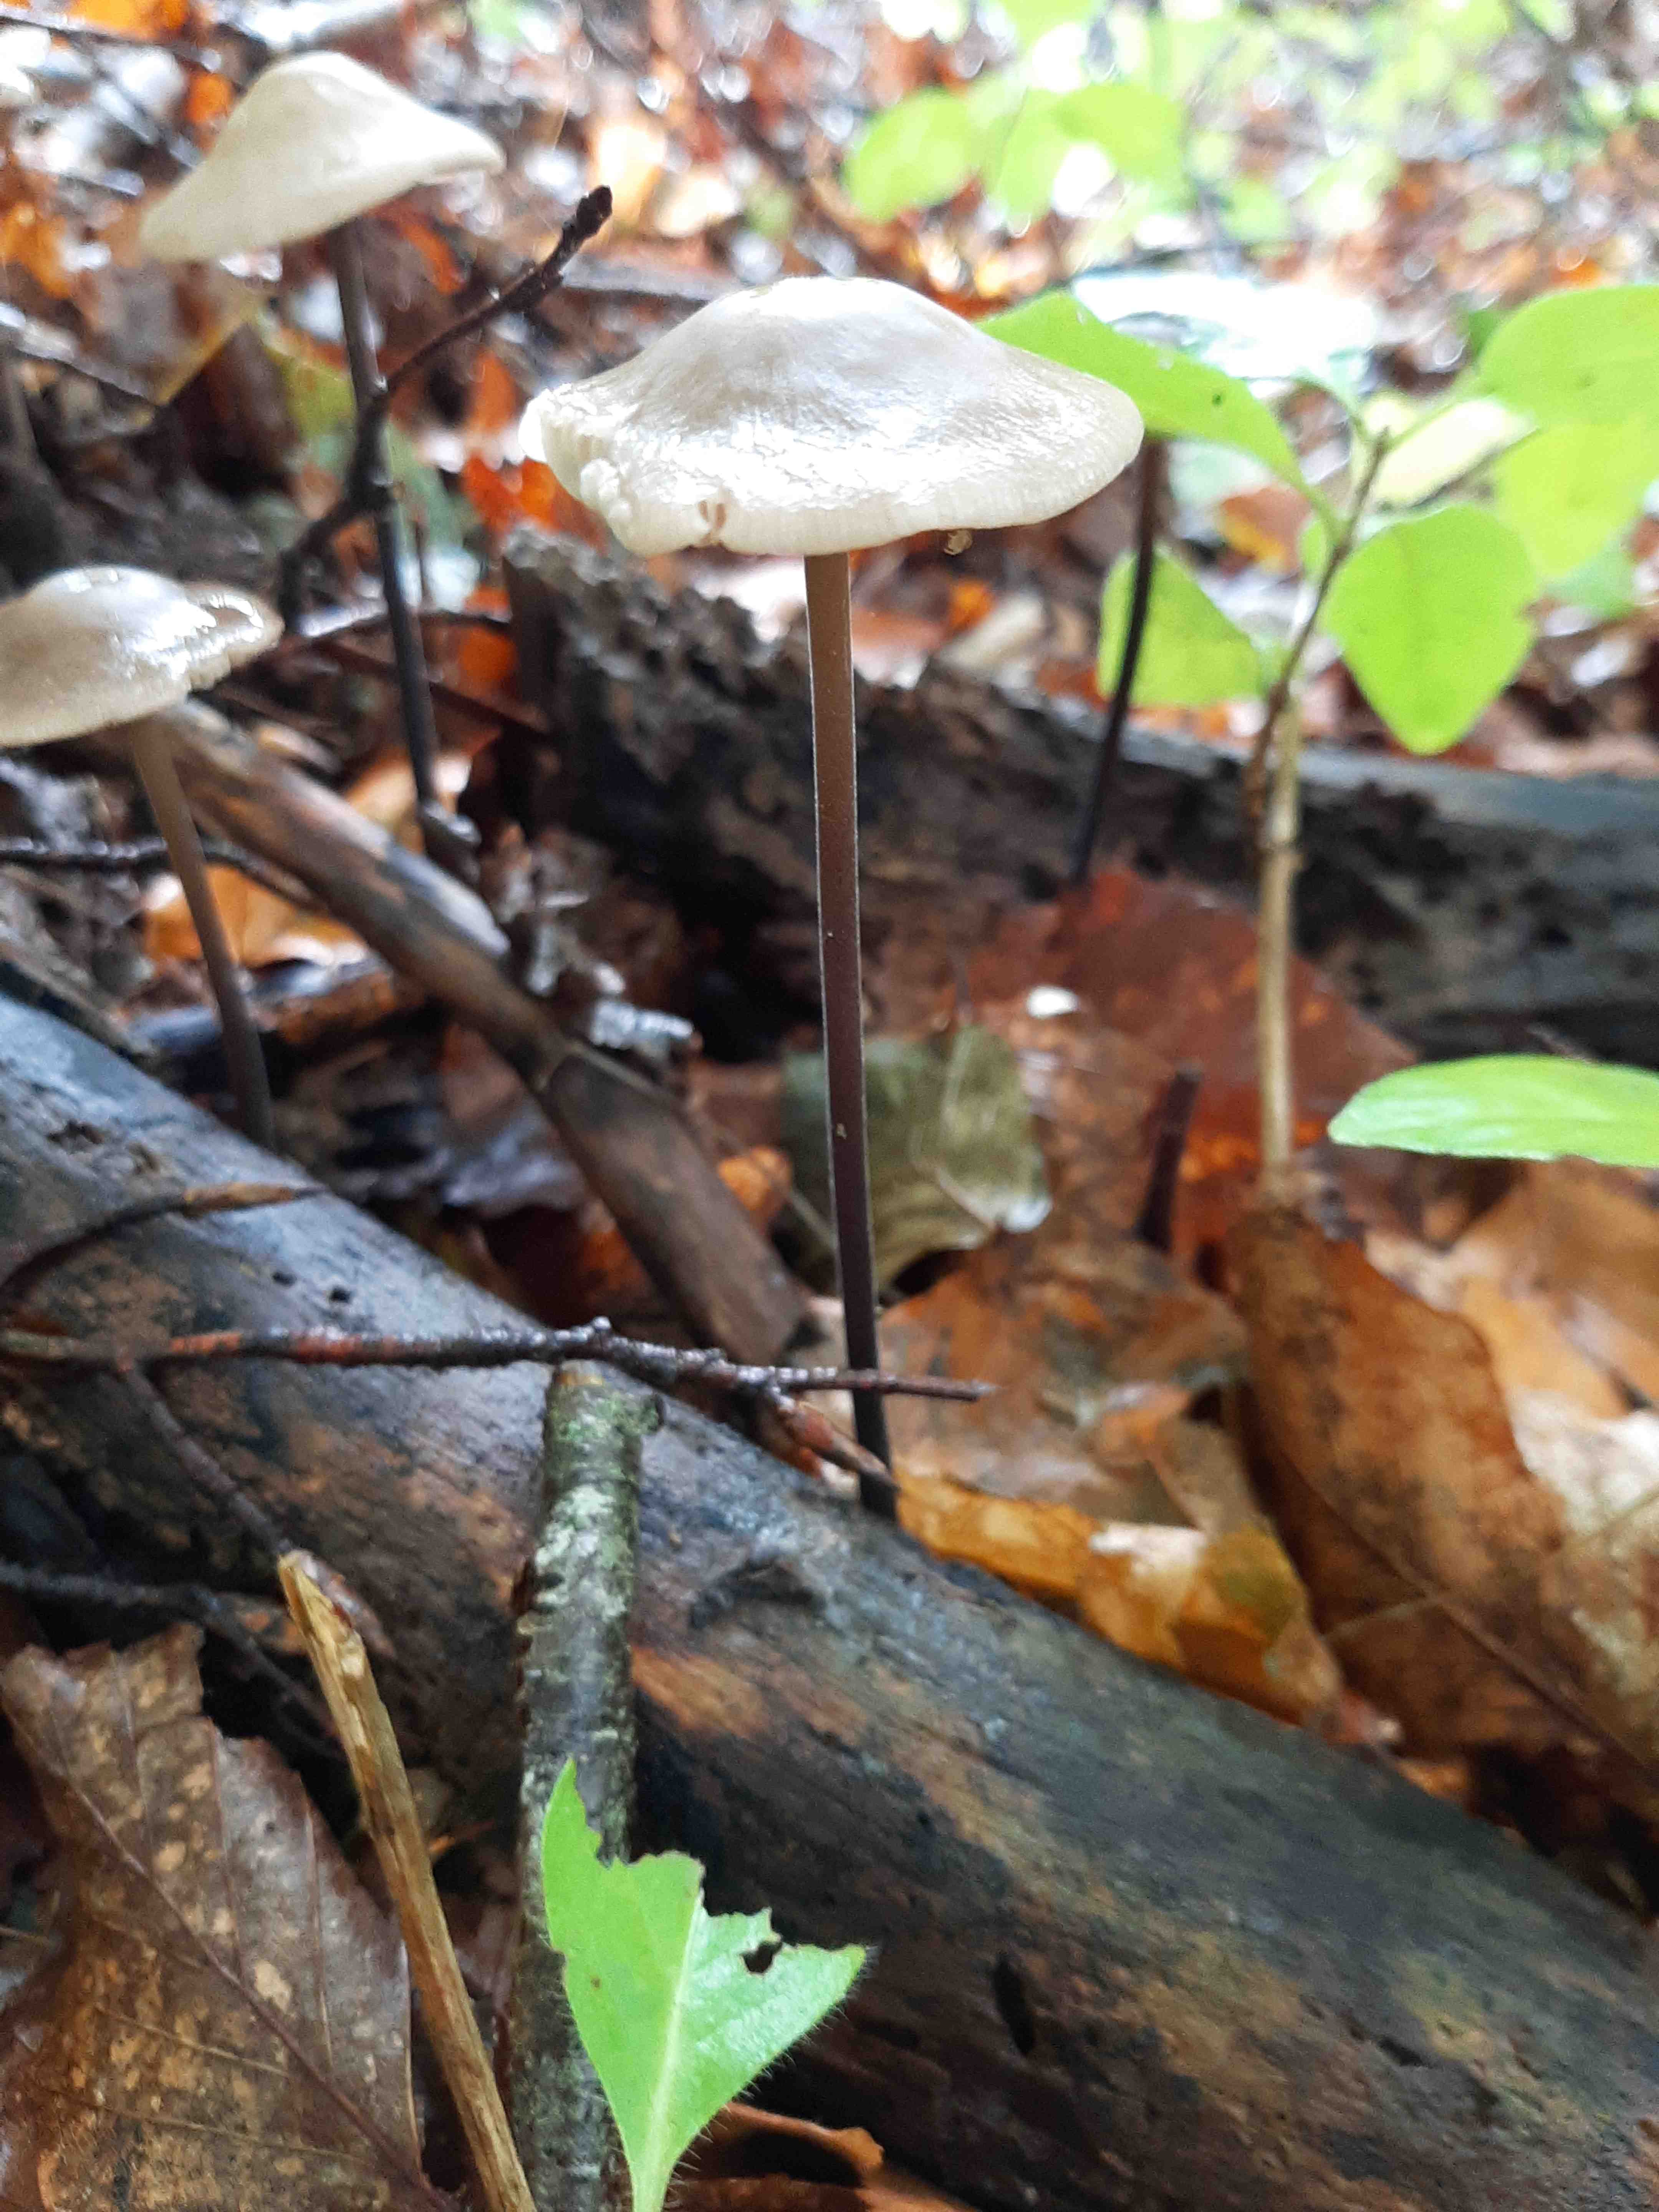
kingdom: Fungi
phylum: Basidiomycota
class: Agaricomycetes
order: Agaricales
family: Omphalotaceae
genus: Mycetinis
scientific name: Mycetinis alliaceus
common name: stor løghat
